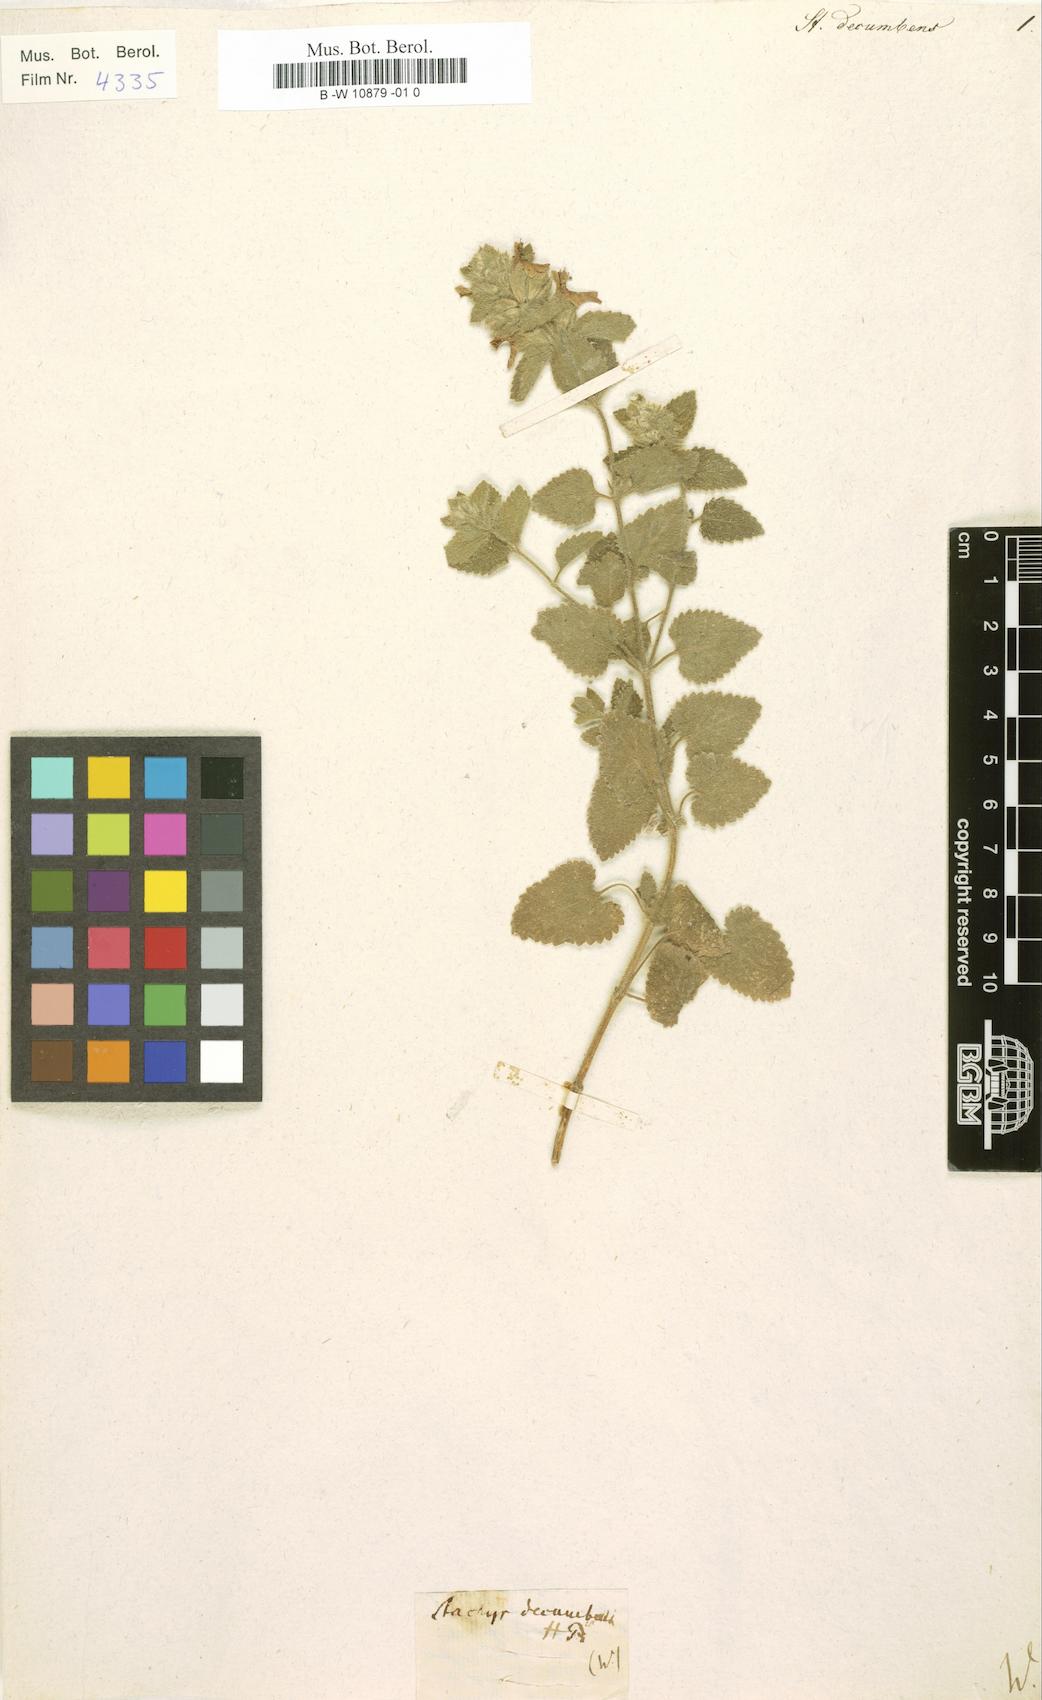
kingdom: Plantae
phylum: Tracheophyta
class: Magnoliopsida
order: Lamiales
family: Lamiaceae
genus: Stachys
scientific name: Stachys
